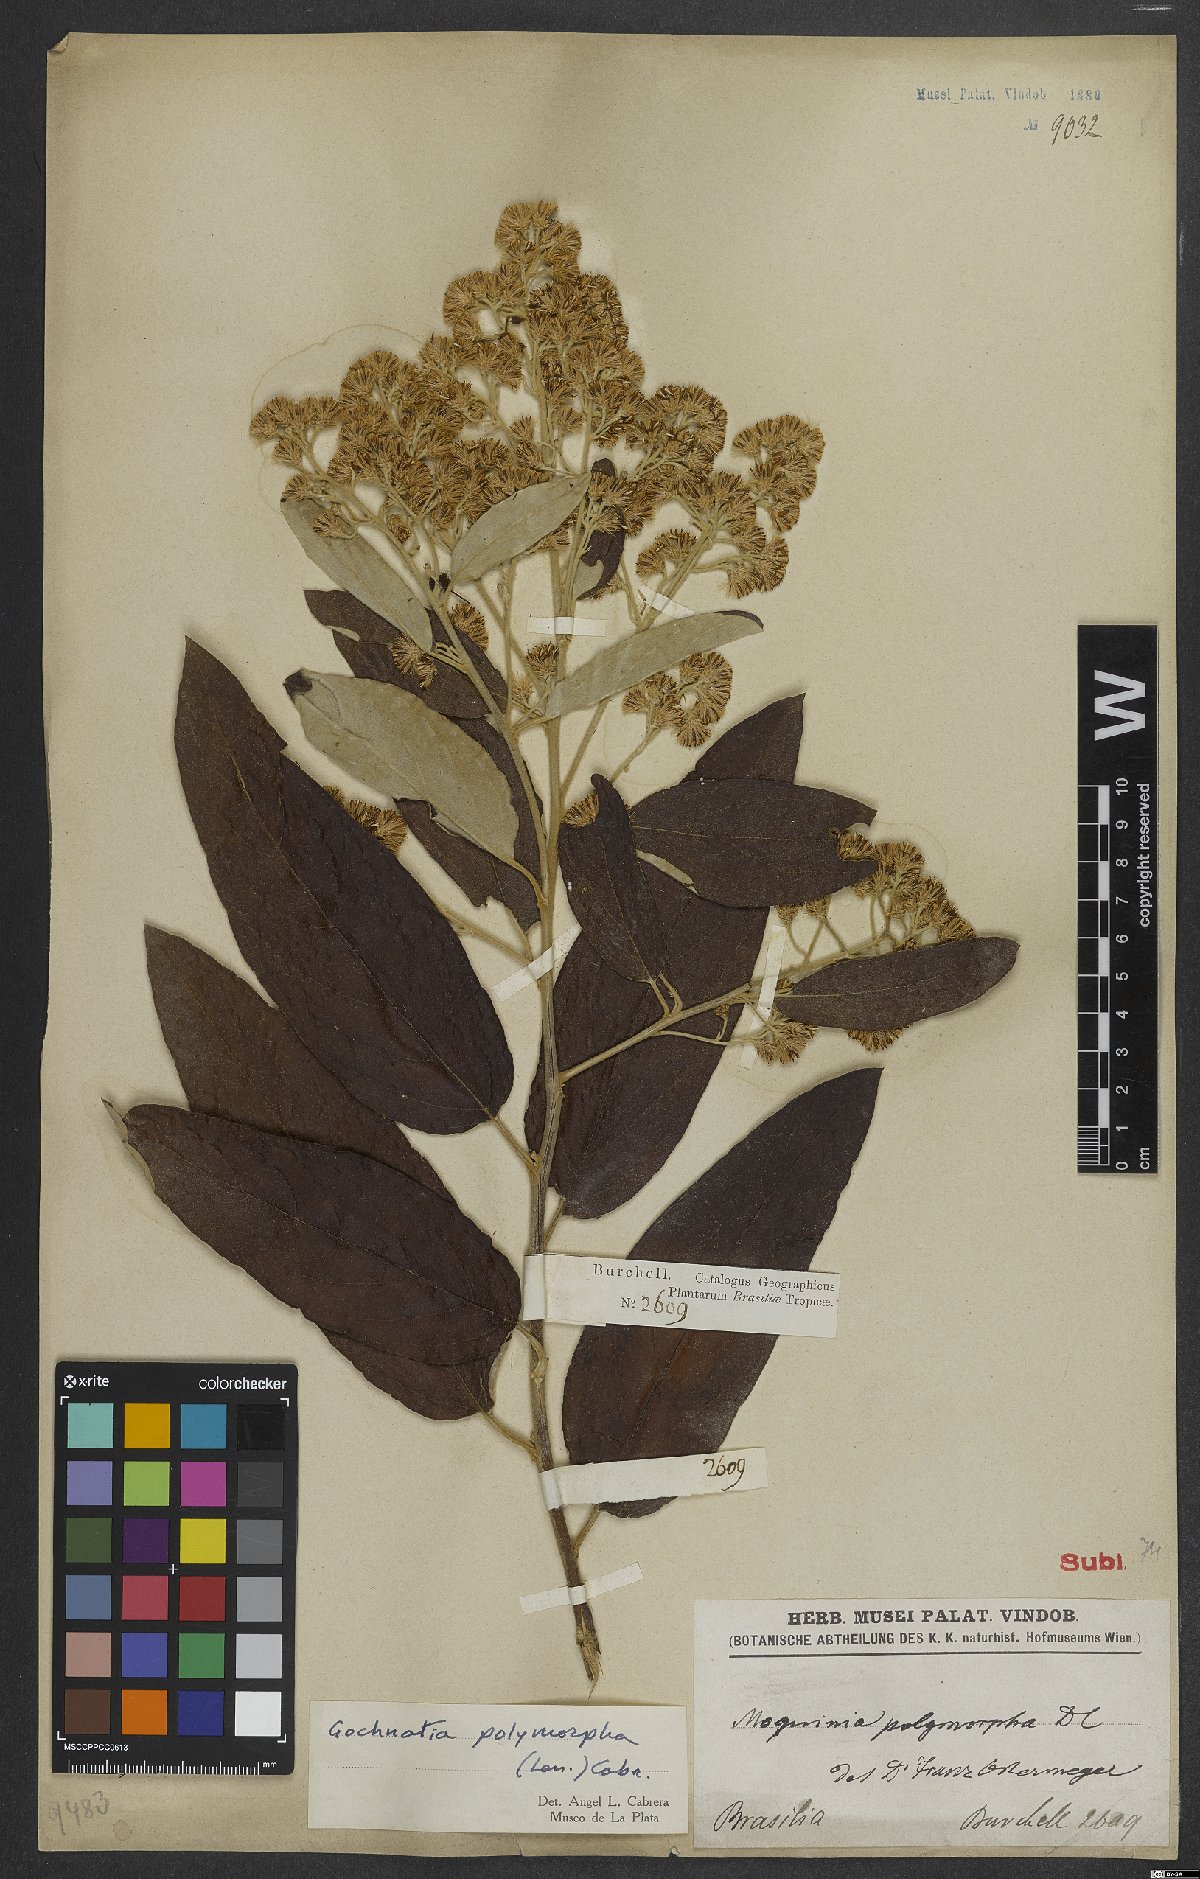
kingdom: Plantae
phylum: Tracheophyta
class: Magnoliopsida
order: Asterales
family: Asteraceae
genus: Moquiniastrum
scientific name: Moquiniastrum polymorphum
